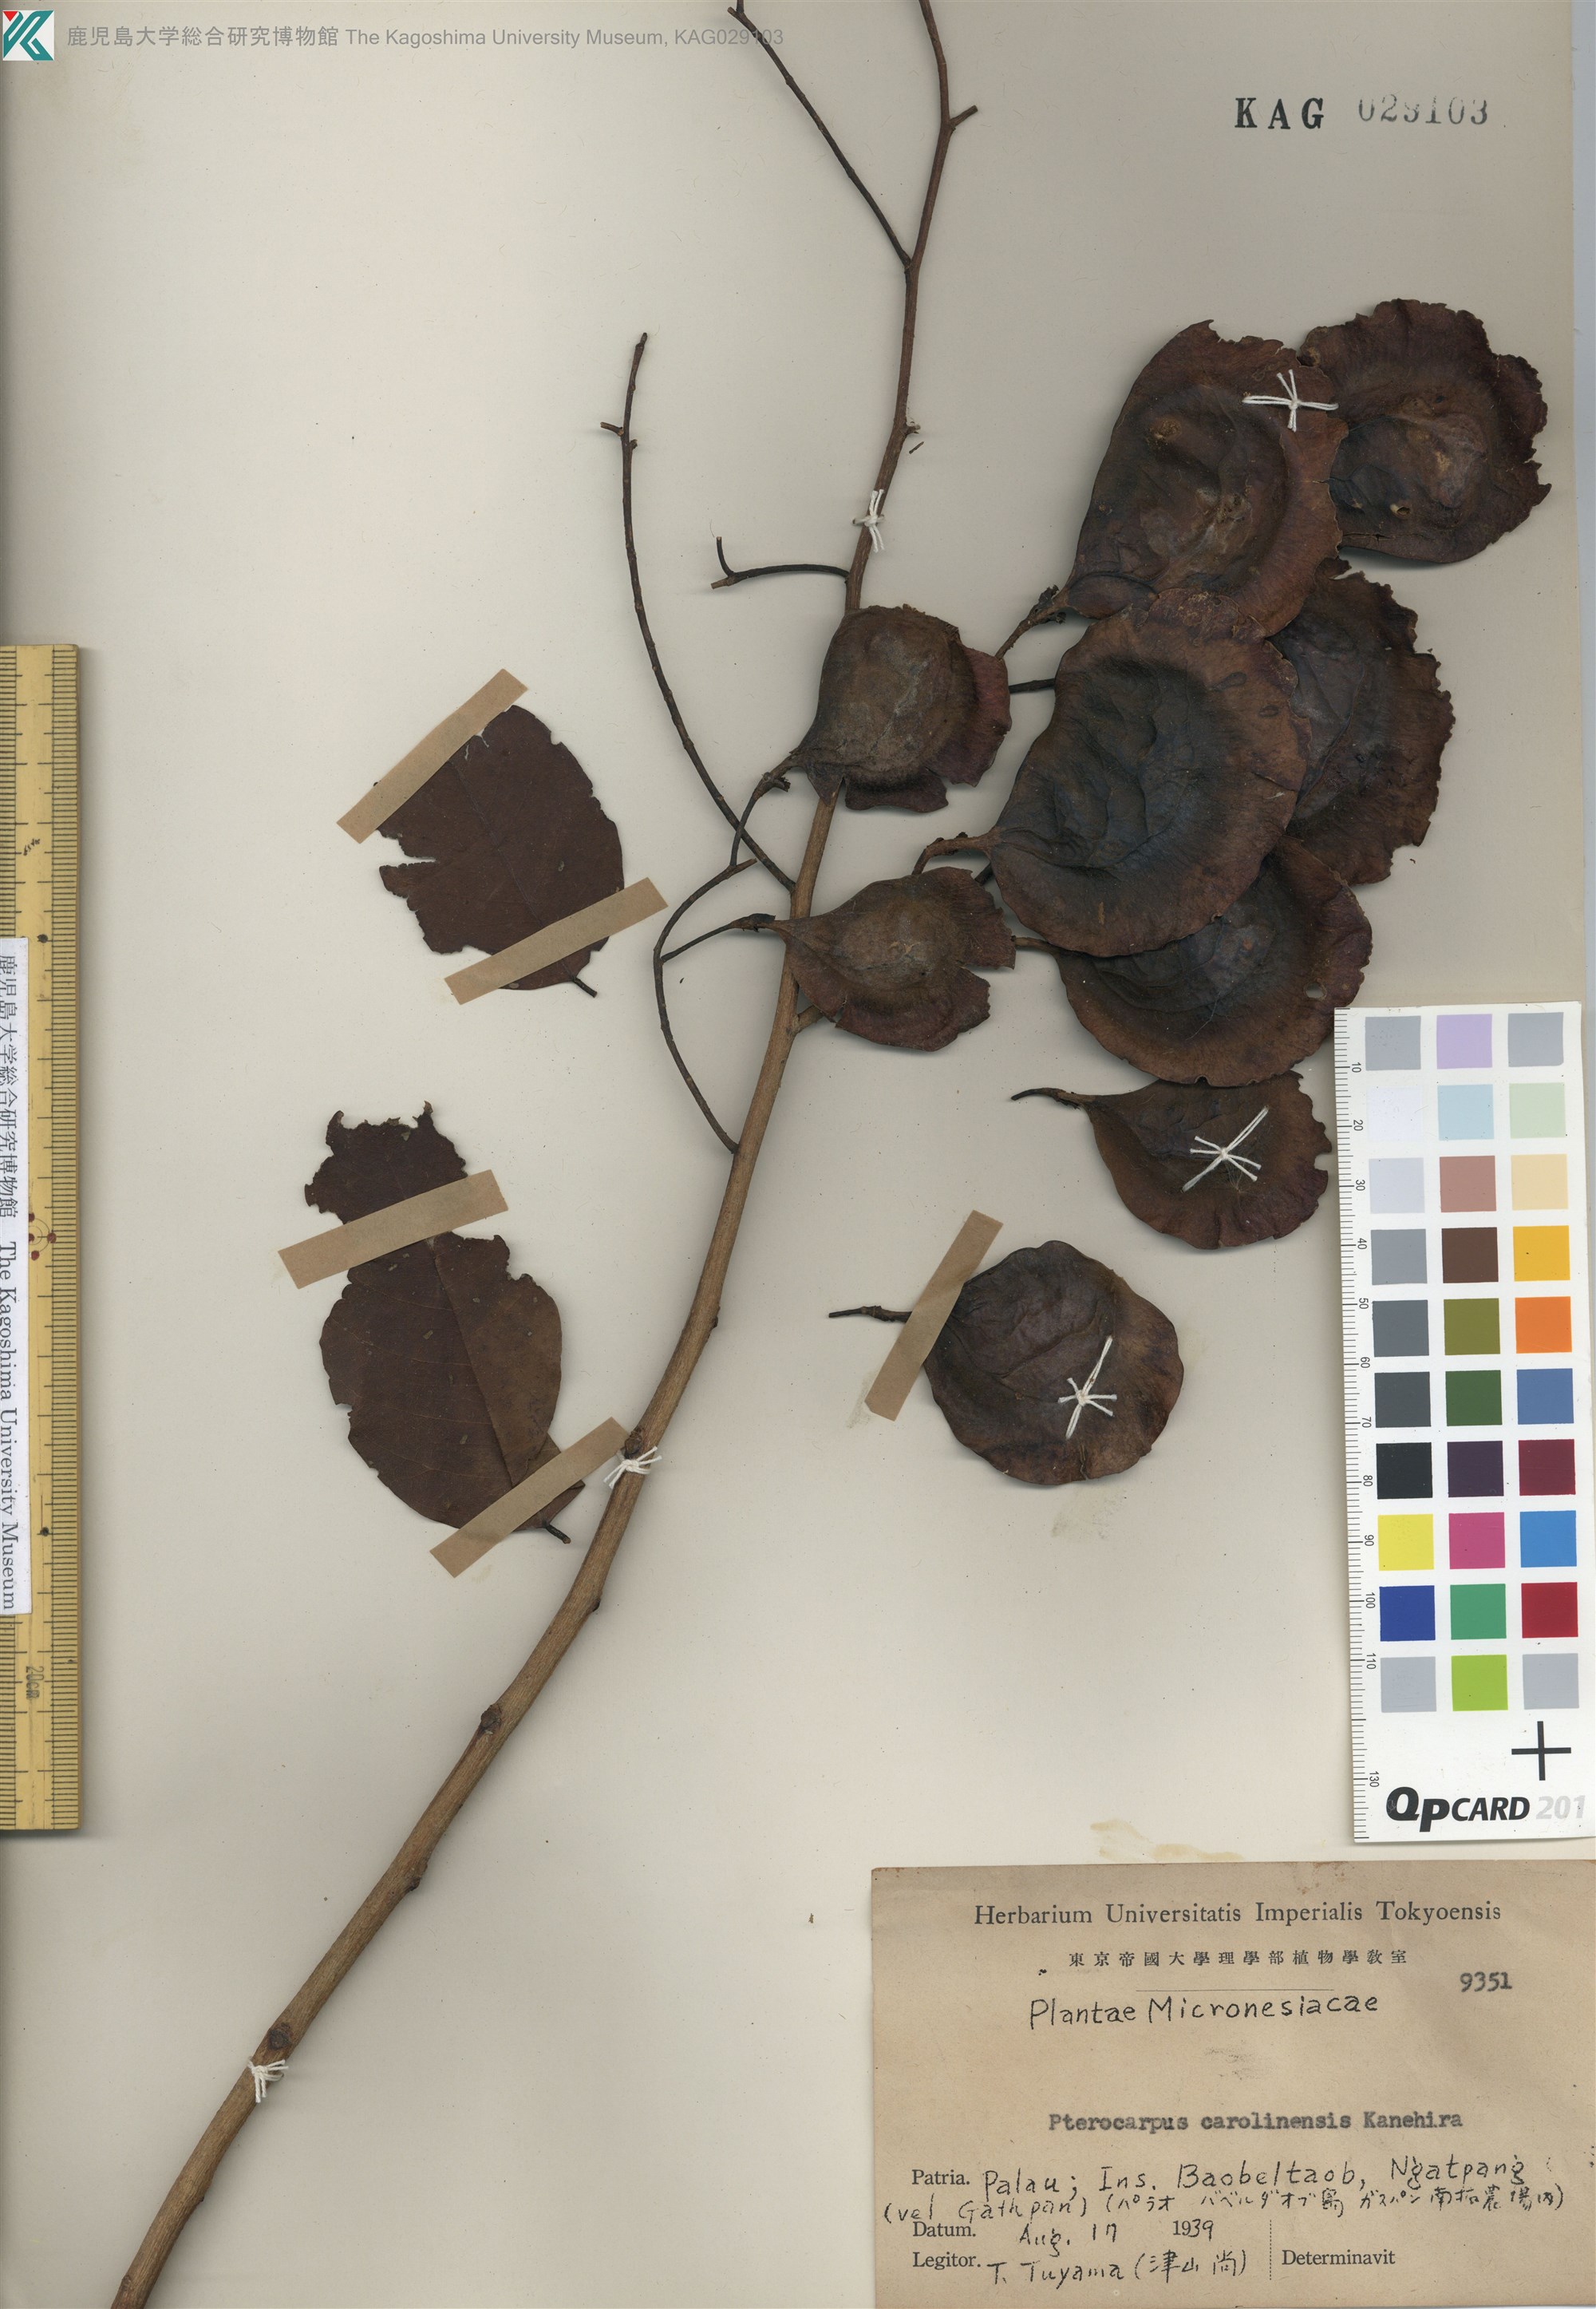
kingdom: Plantae
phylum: Tracheophyta
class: Magnoliopsida
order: Fabales
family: Fabaceae
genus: Pterocarpus
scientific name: Pterocarpus indicus
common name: Burmese rosewood
